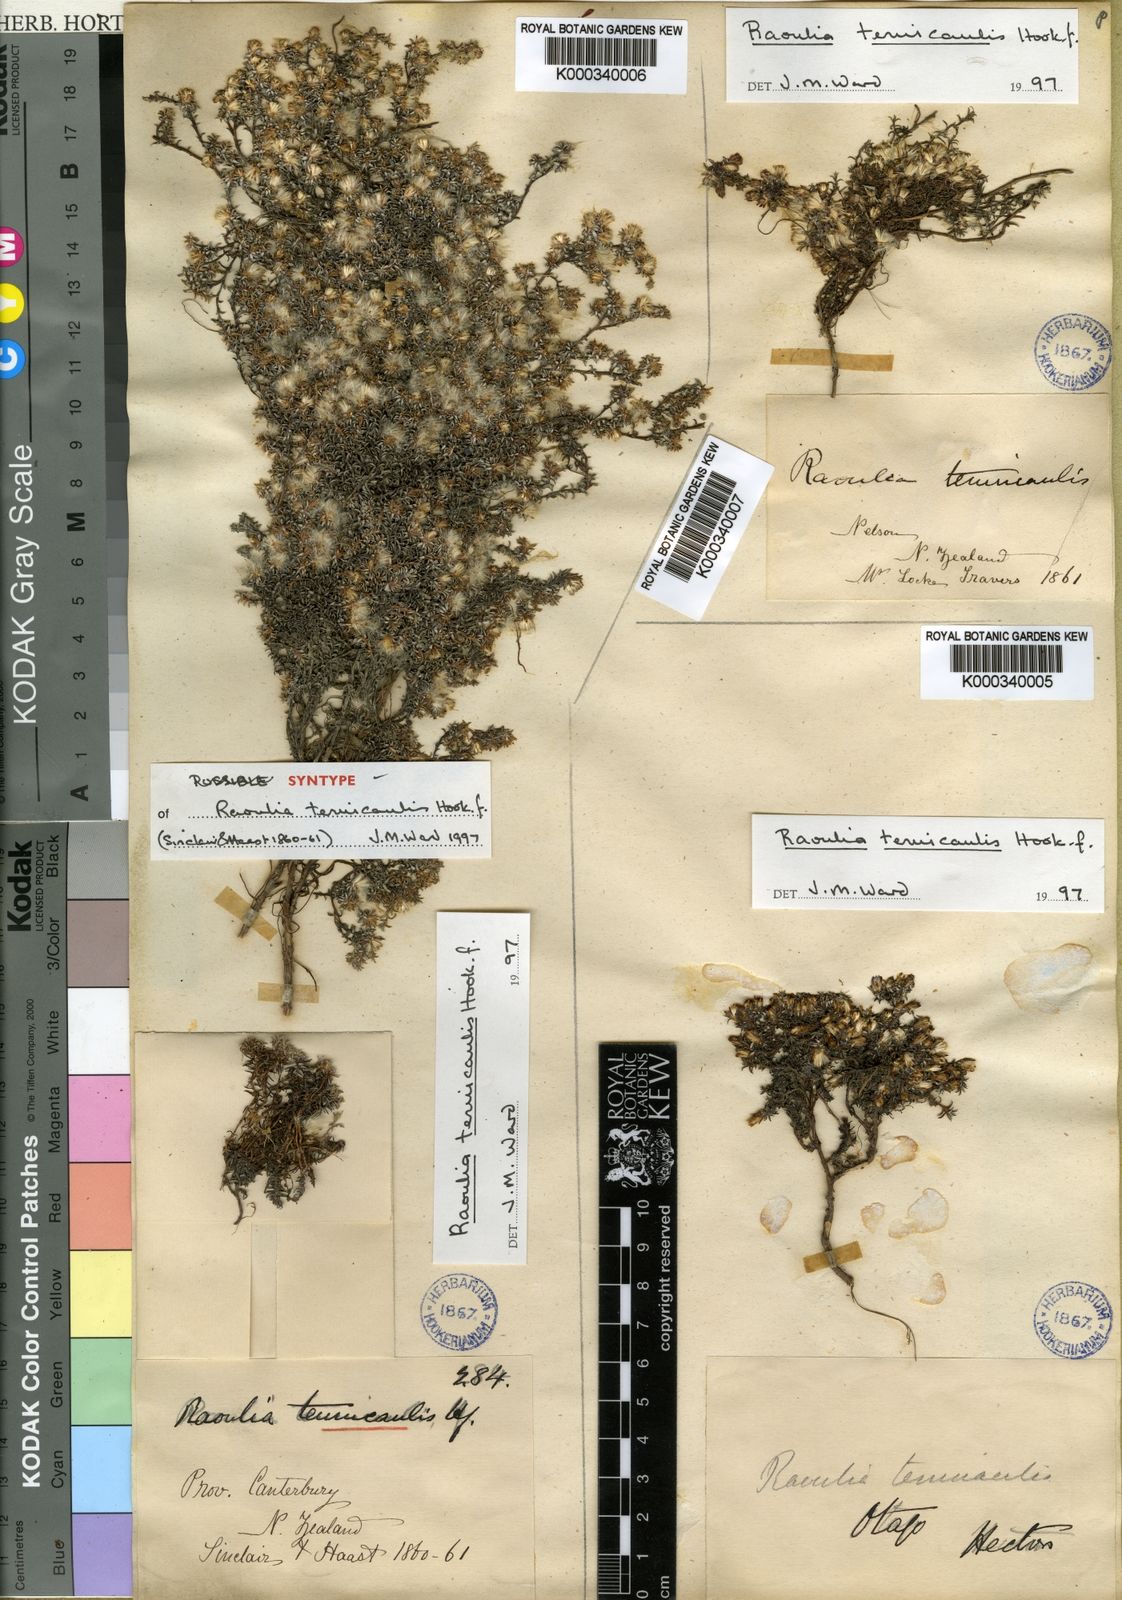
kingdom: Plantae
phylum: Tracheophyta
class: Magnoliopsida
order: Asterales
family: Asteraceae
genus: Raoulia
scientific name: Raoulia tenuicaulis
